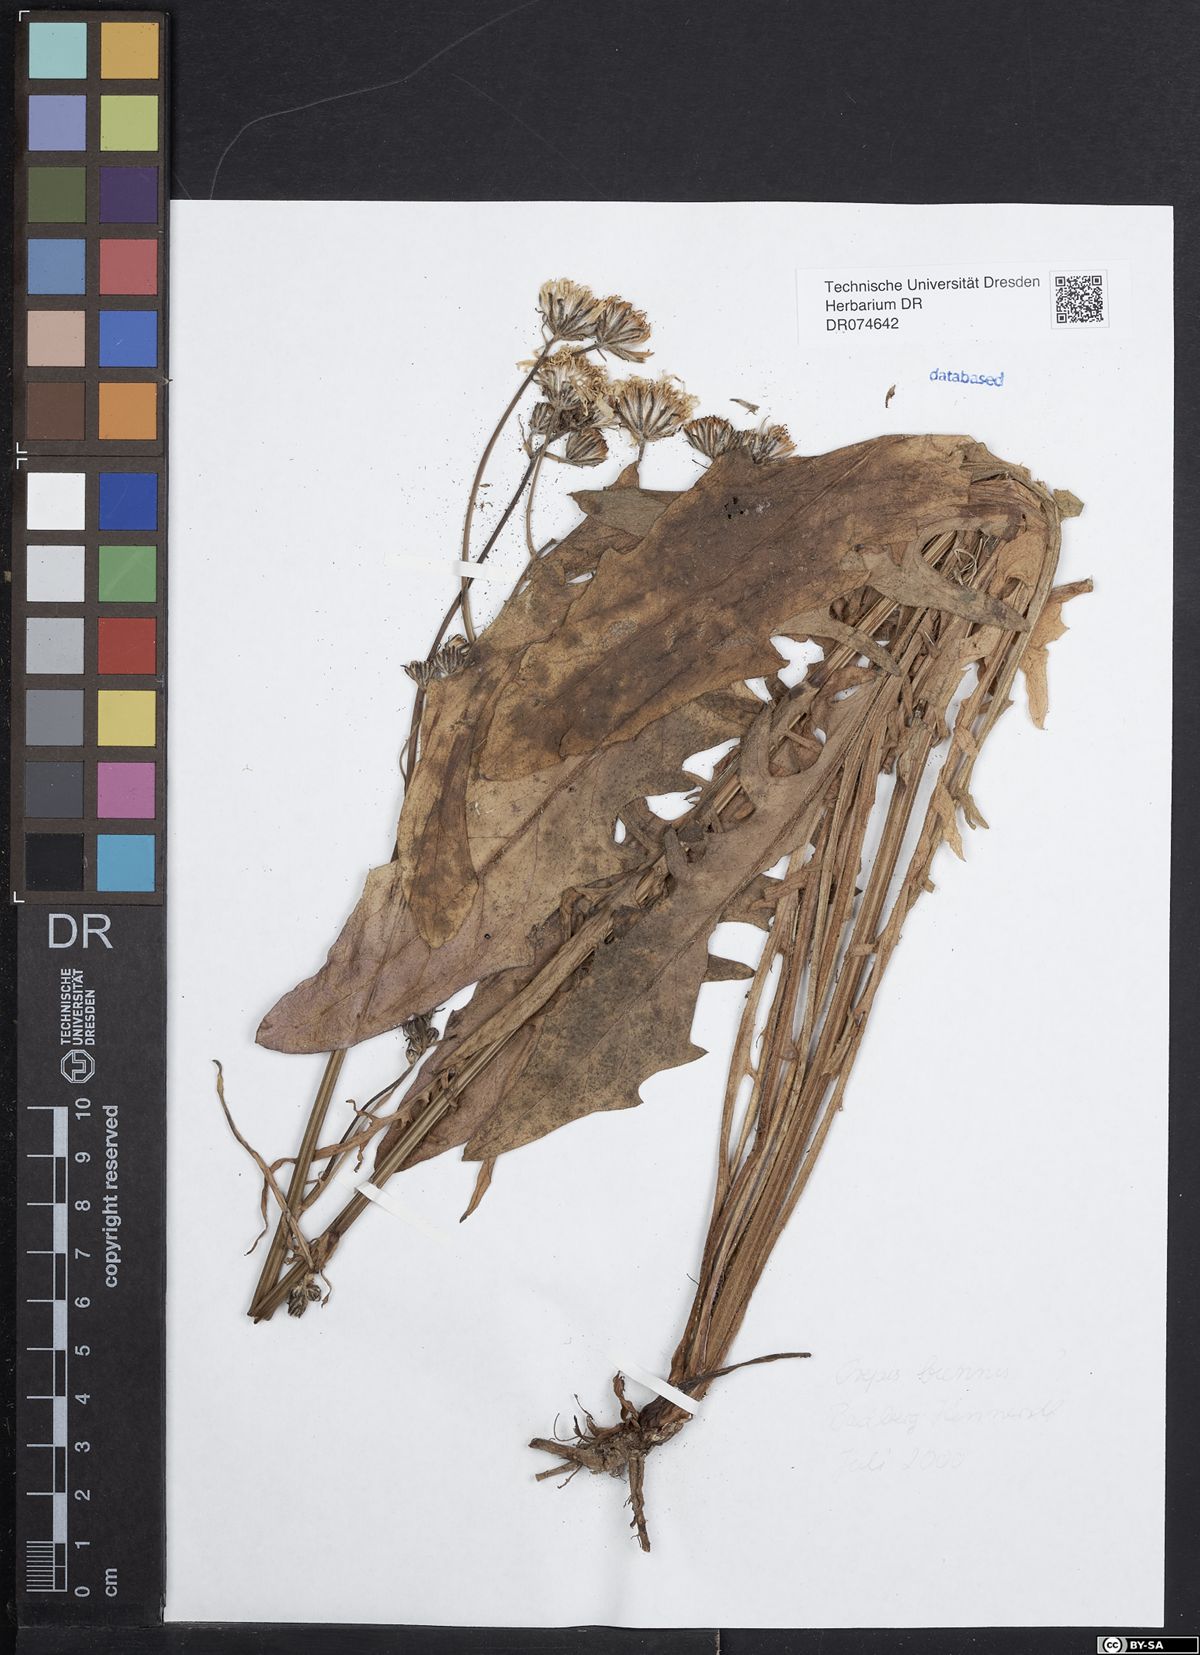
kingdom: Plantae
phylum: Tracheophyta
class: Magnoliopsida
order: Asterales
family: Asteraceae
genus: Crepis
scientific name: Crepis biennis
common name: Rough hawk's-beard
